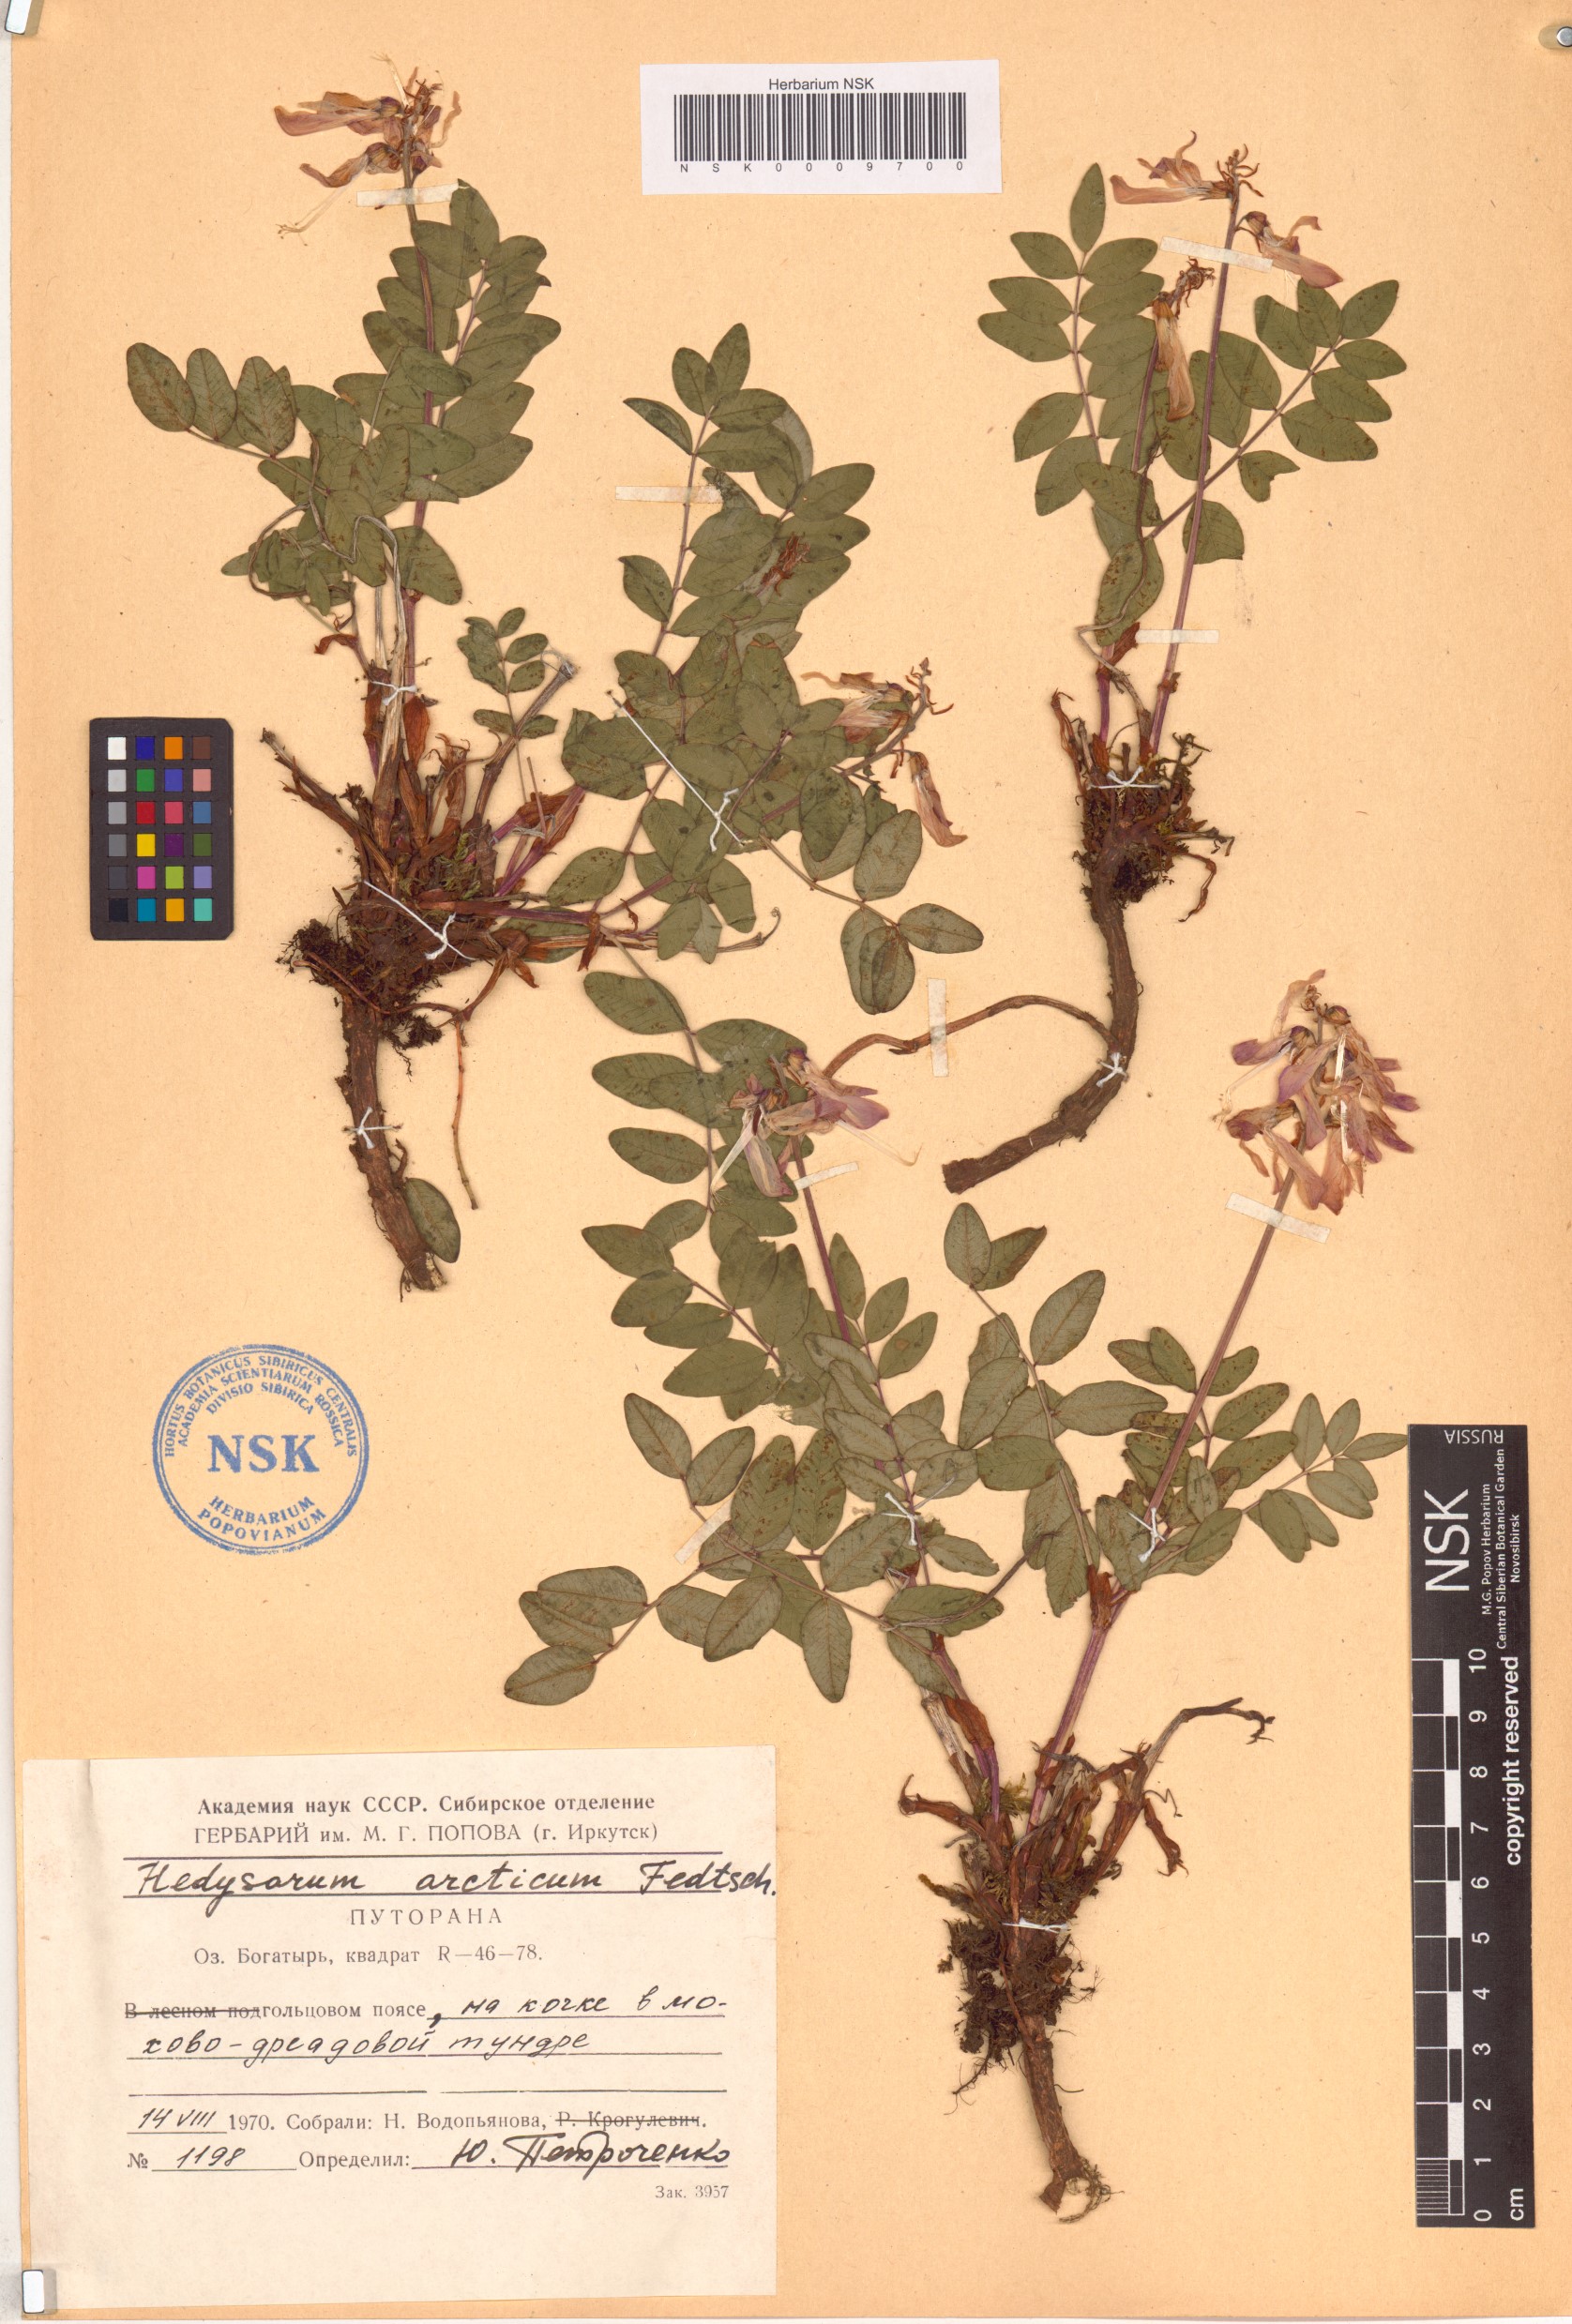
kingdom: Plantae
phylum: Tracheophyta
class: Magnoliopsida
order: Fabales
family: Fabaceae
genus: Hedysarum
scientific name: Hedysarum hedysaroides
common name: Alpine french-honeysuckle
